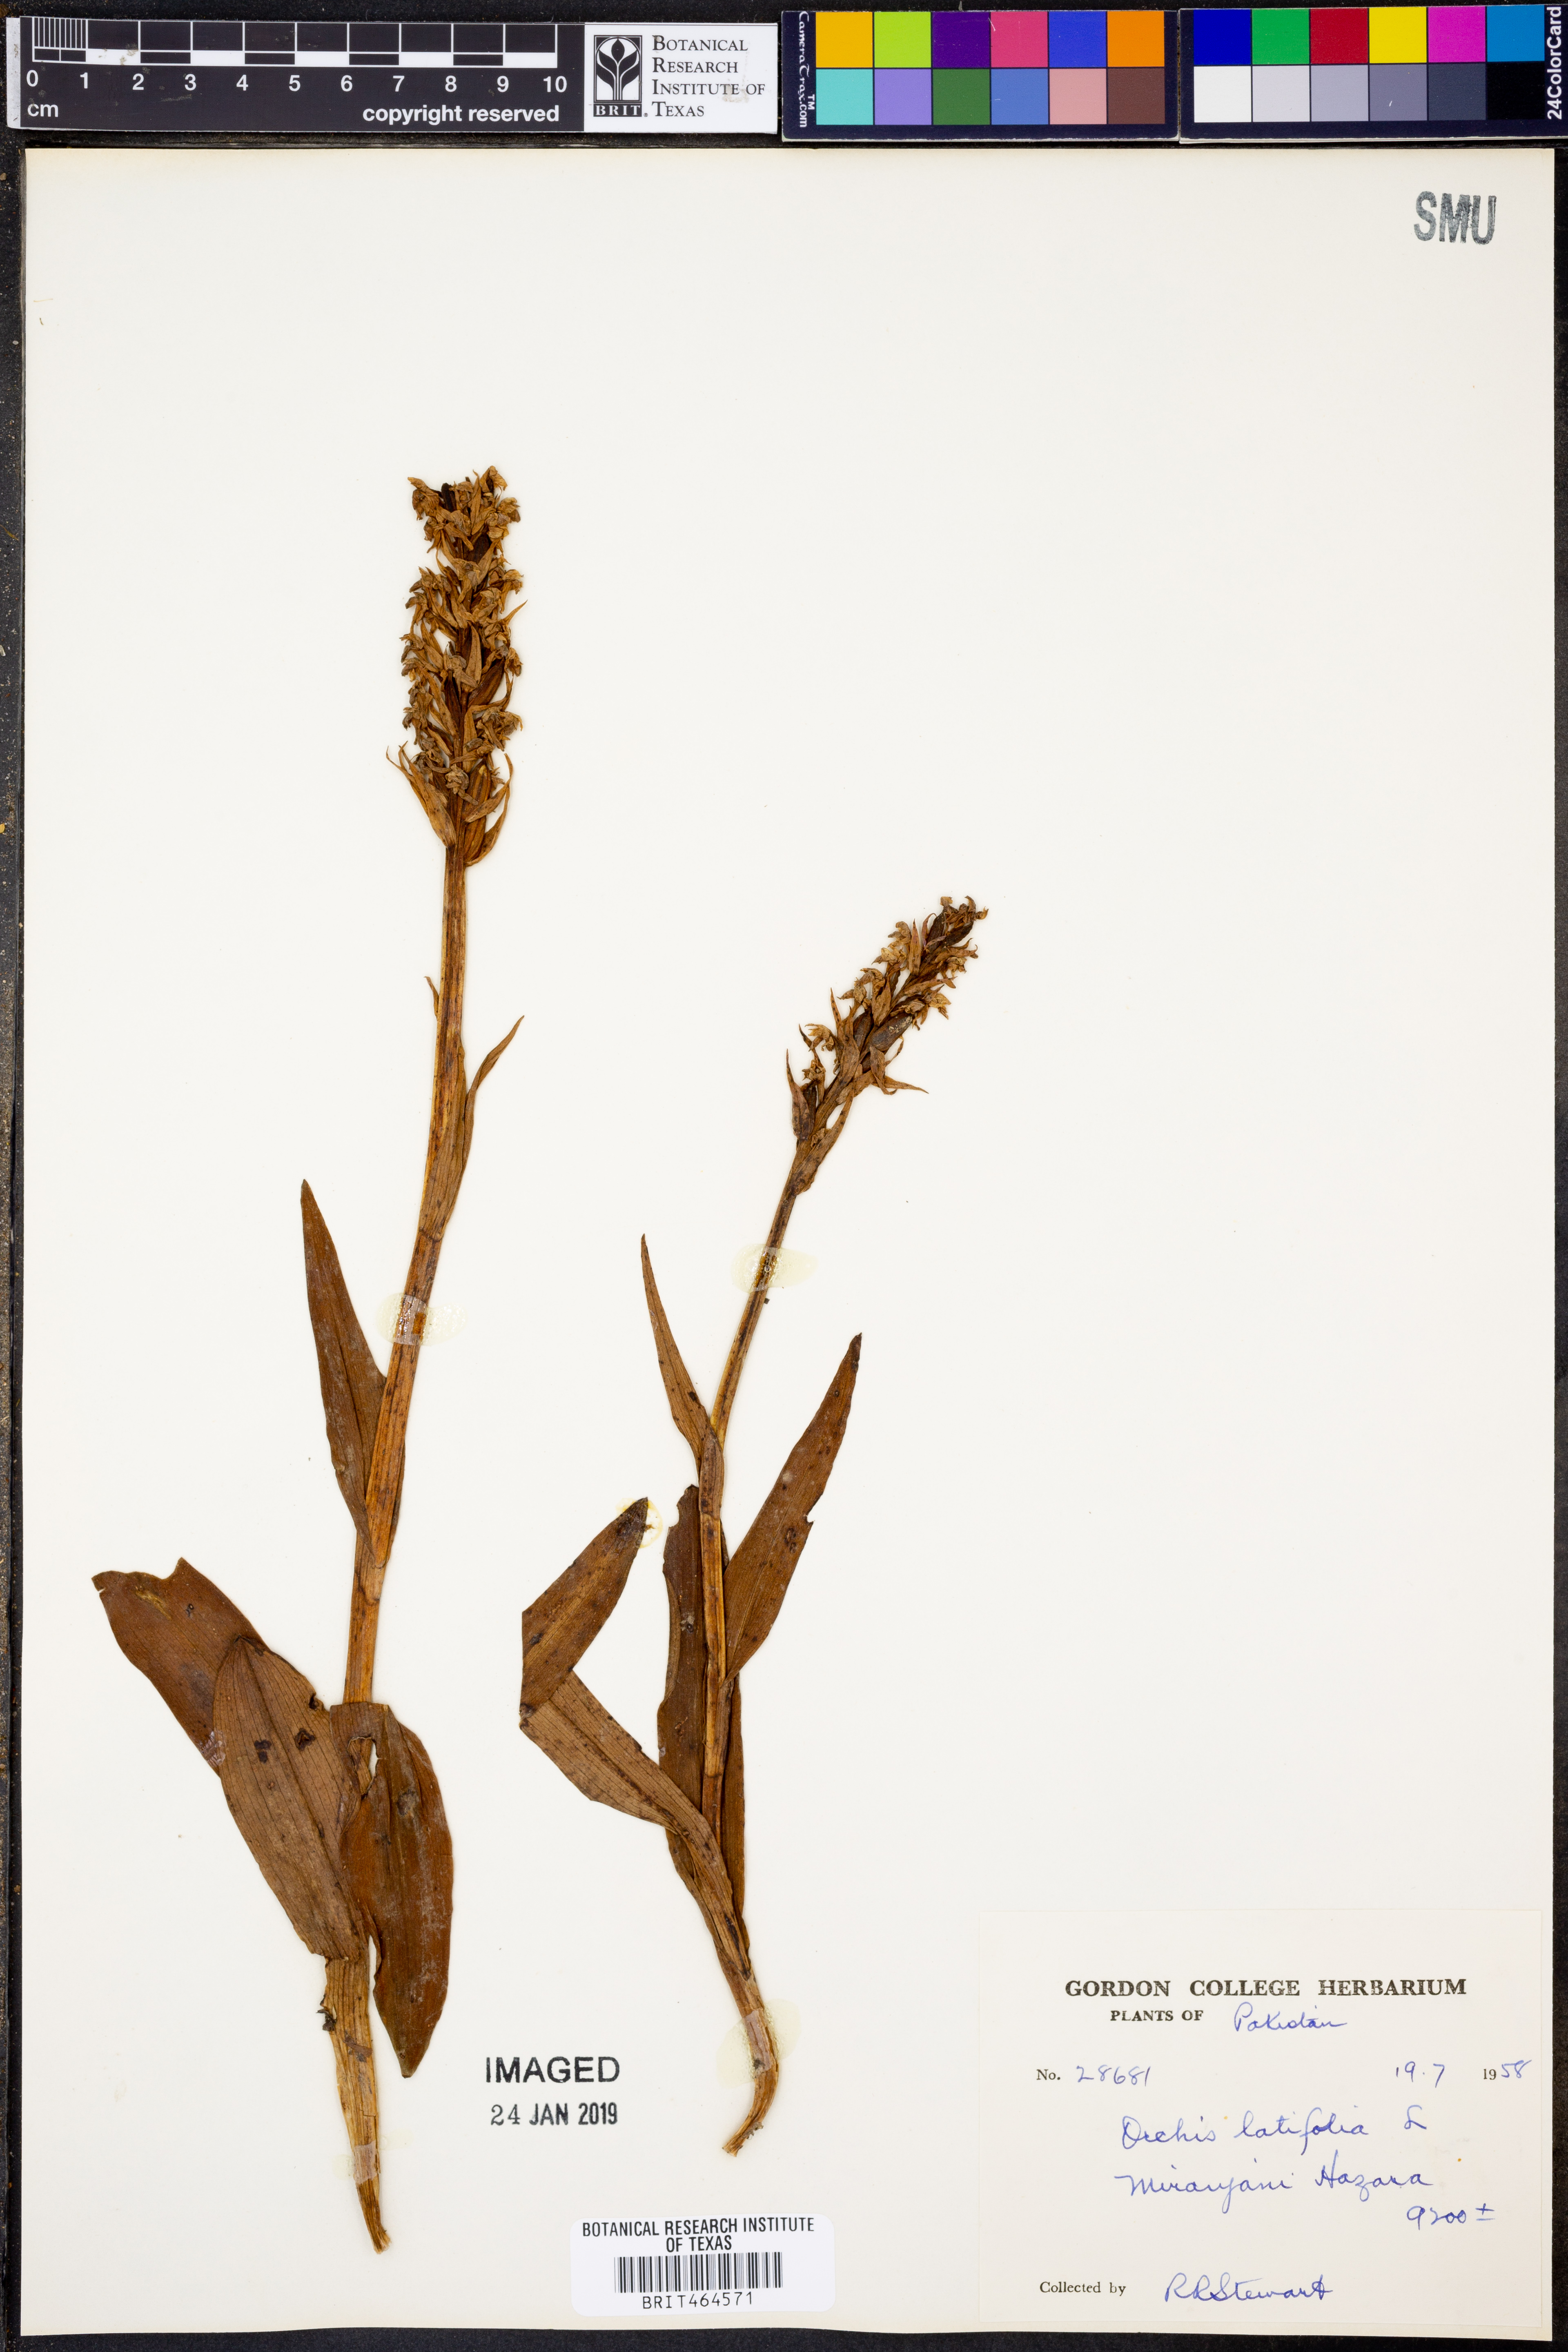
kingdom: Plantae
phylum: Tracheophyta
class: Liliopsida
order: Asparagales
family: Orchidaceae
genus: Dactylorhiza
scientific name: Dactylorhiza incarnata
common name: Early marsh-orchid
